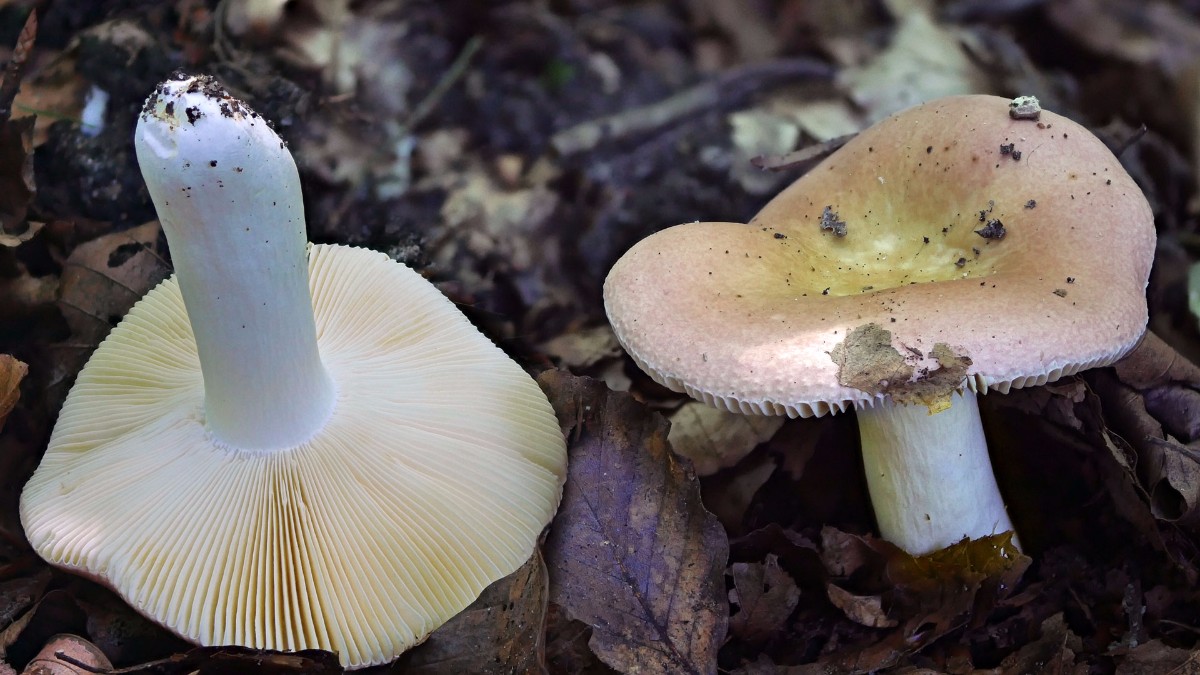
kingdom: Fungi
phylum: Basidiomycota
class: Agaricomycetes
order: Russulales
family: Russulaceae
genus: Russula
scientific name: Russula veternosa
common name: blødkødet skørhat
